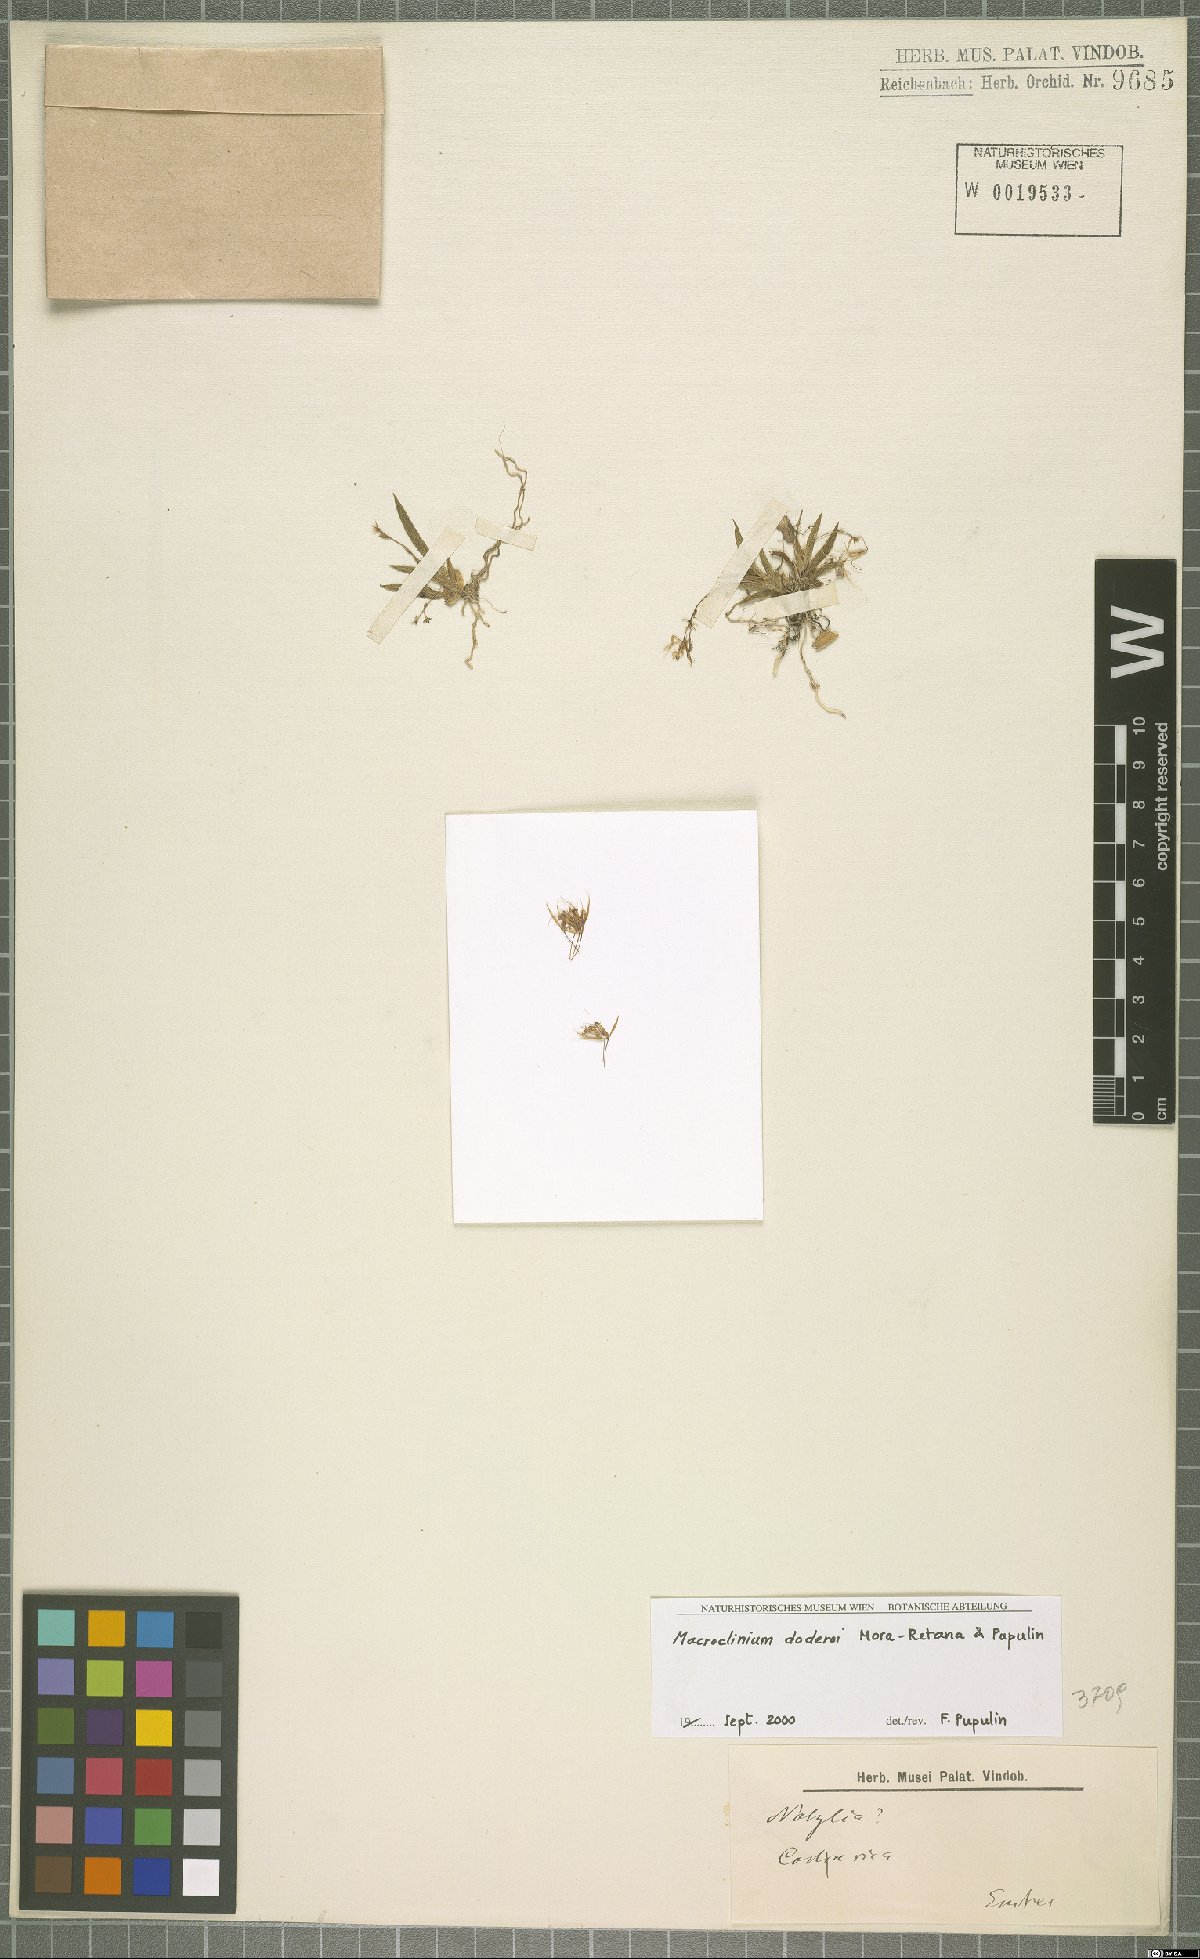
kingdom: Plantae
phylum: Tracheophyta
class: Liliopsida
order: Asparagales
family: Orchidaceae
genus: Macroclinium
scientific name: Macroclinium doderoi
